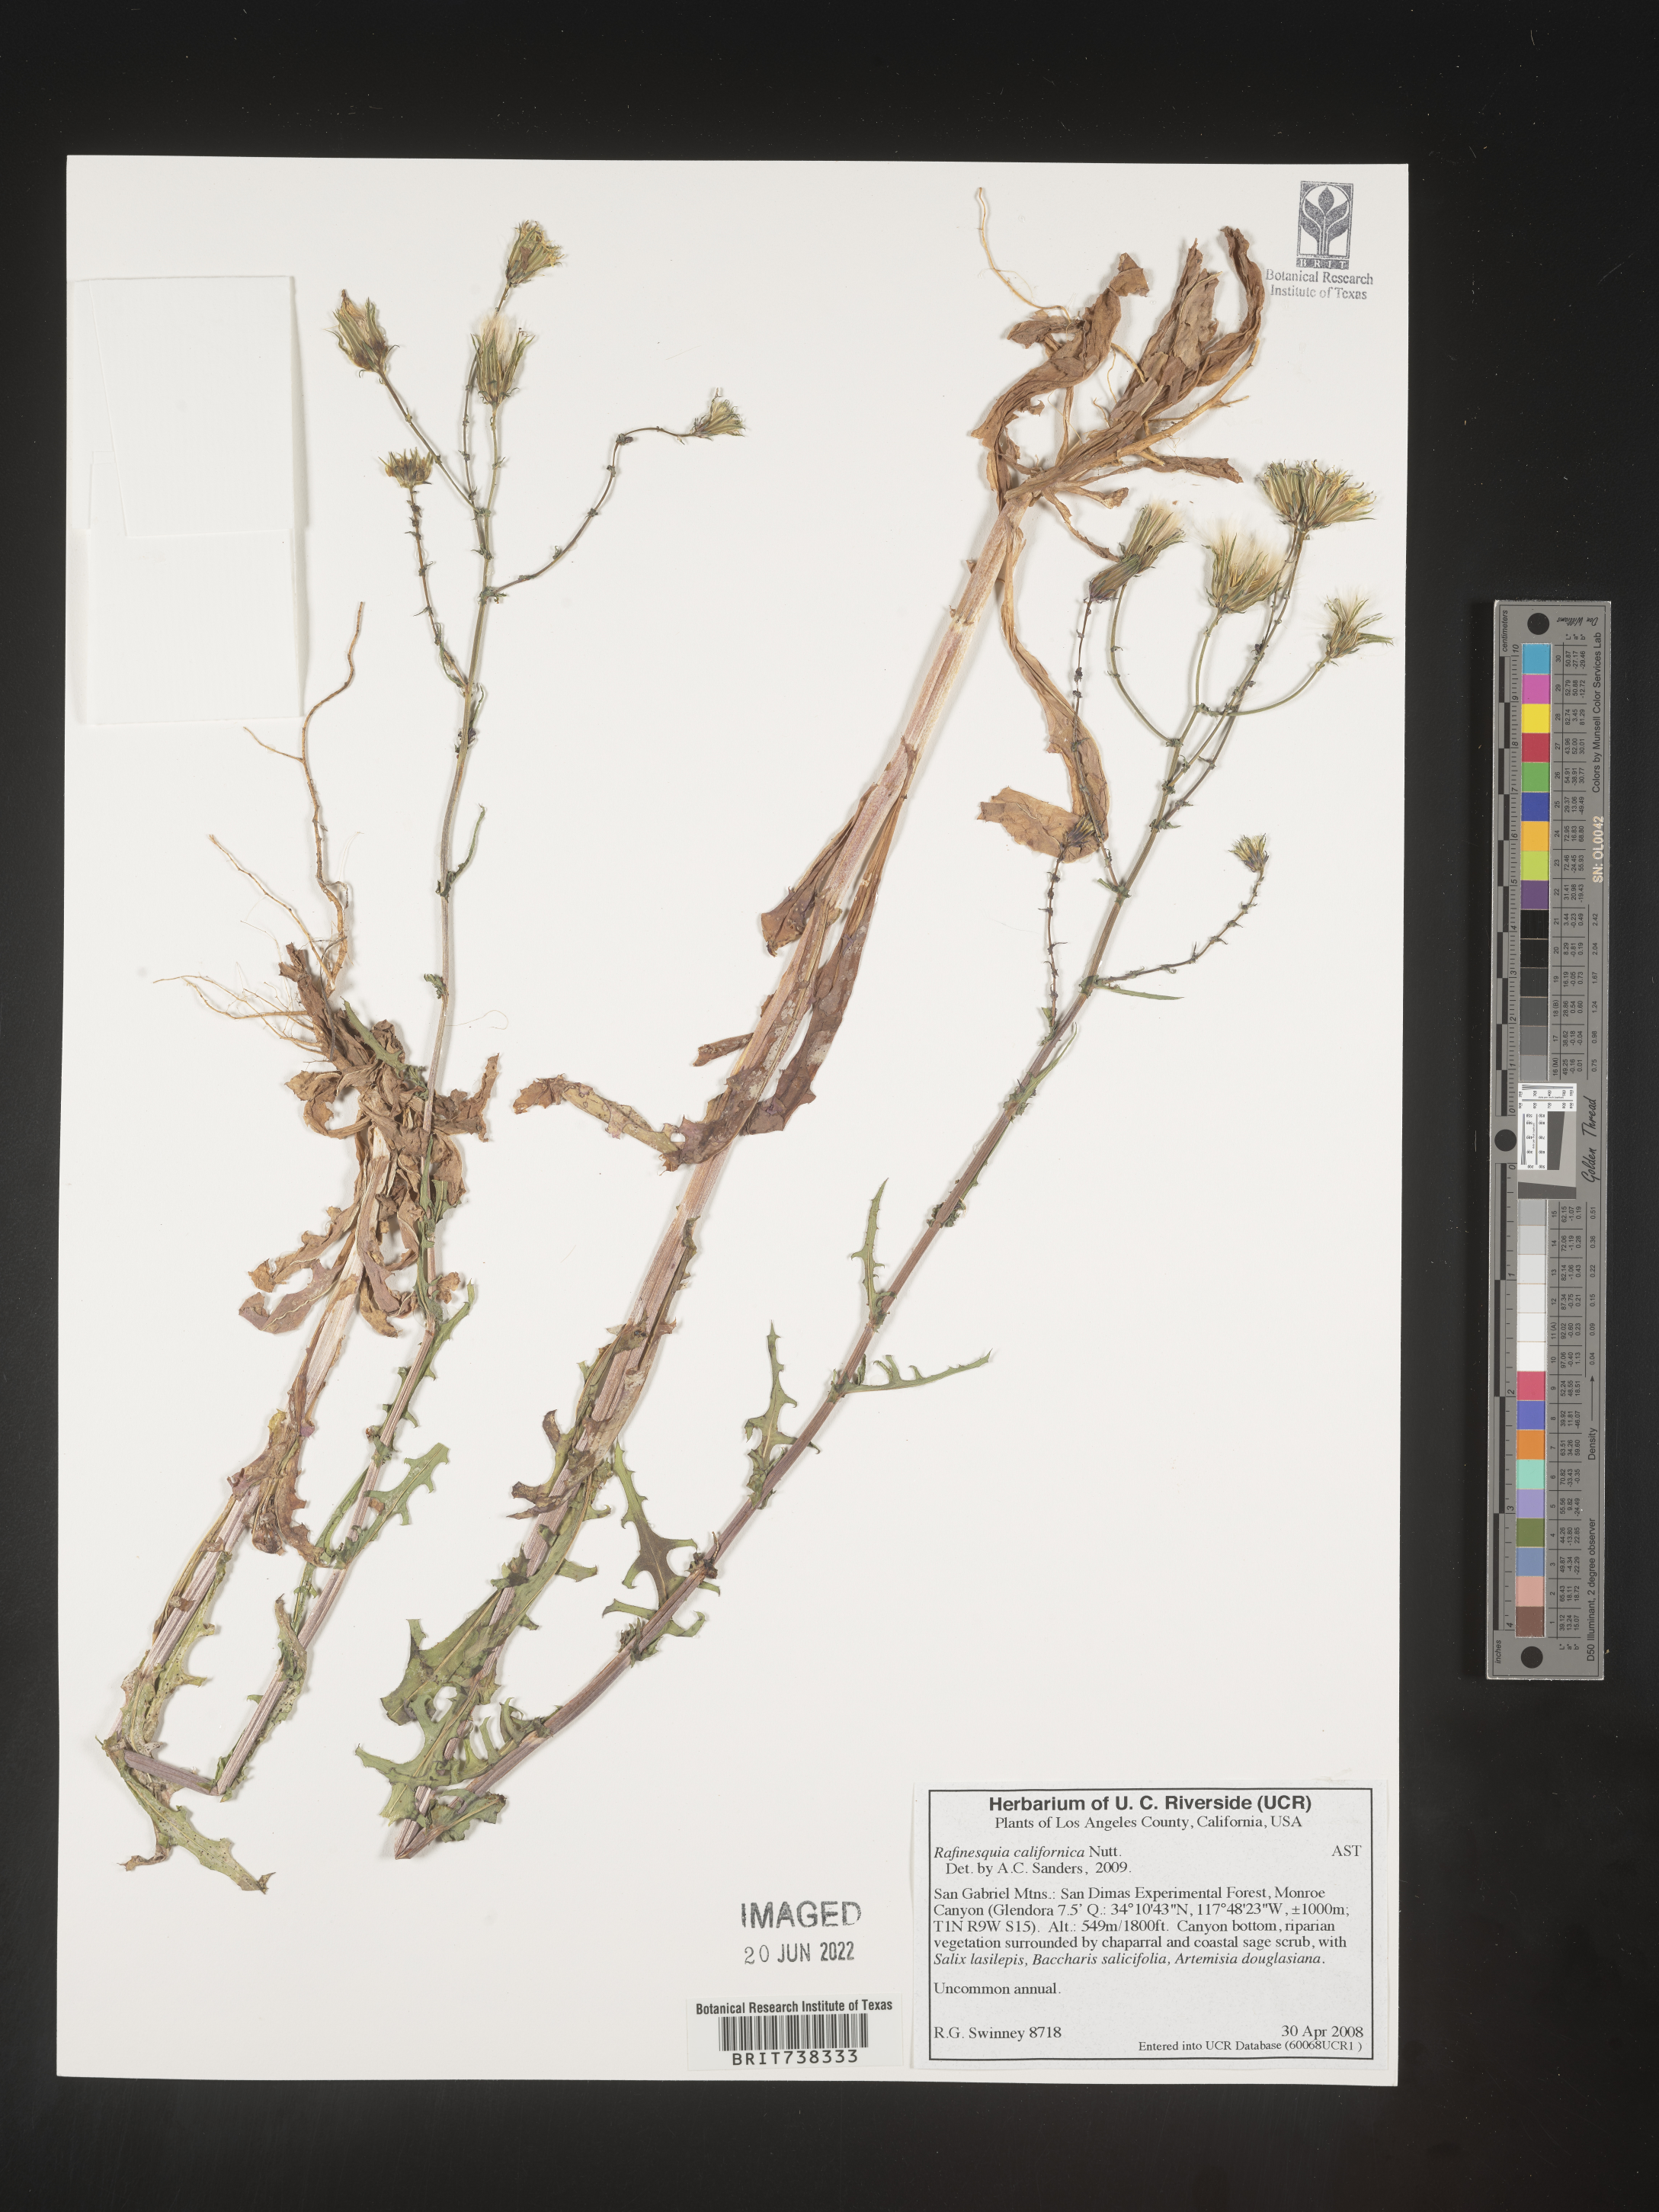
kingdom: Plantae
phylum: Tracheophyta
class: Magnoliopsida
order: Asterales
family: Asteraceae
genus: Rafinesquia
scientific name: Rafinesquia
